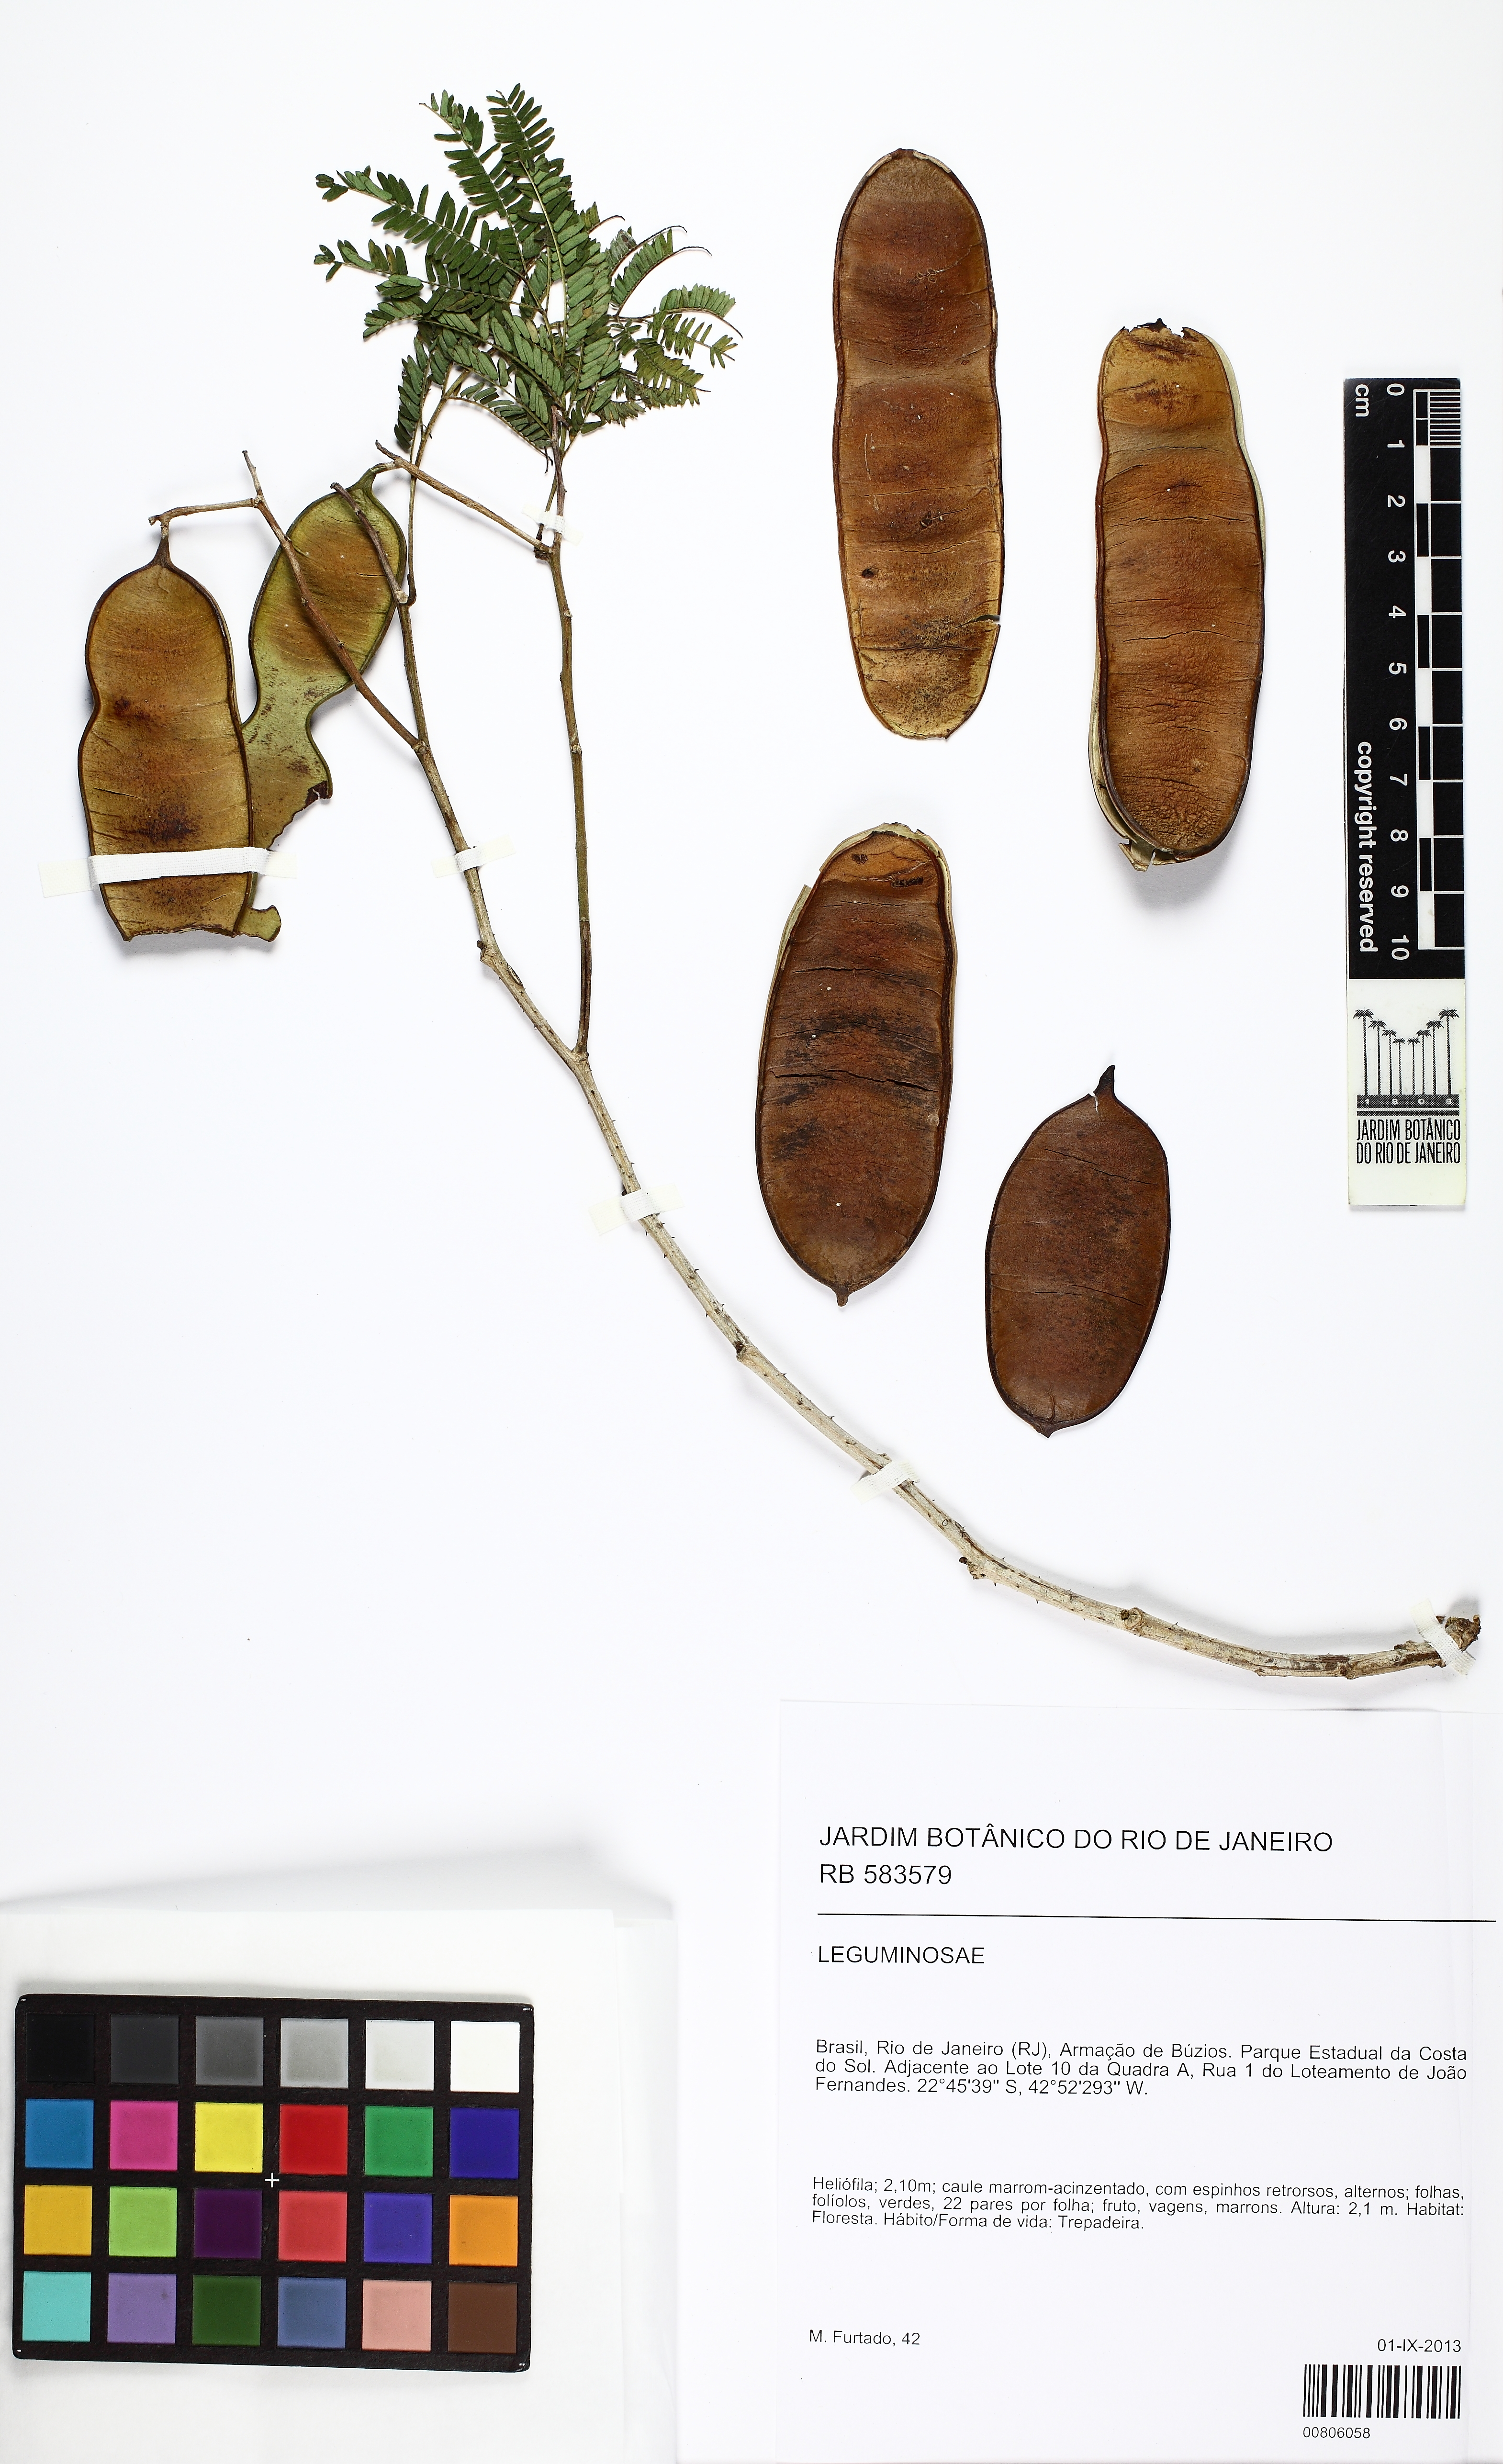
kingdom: Plantae
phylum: Tracheophyta
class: Magnoliopsida
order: Fabales
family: Fabaceae
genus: Senegalia
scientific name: Senegalia velutina
